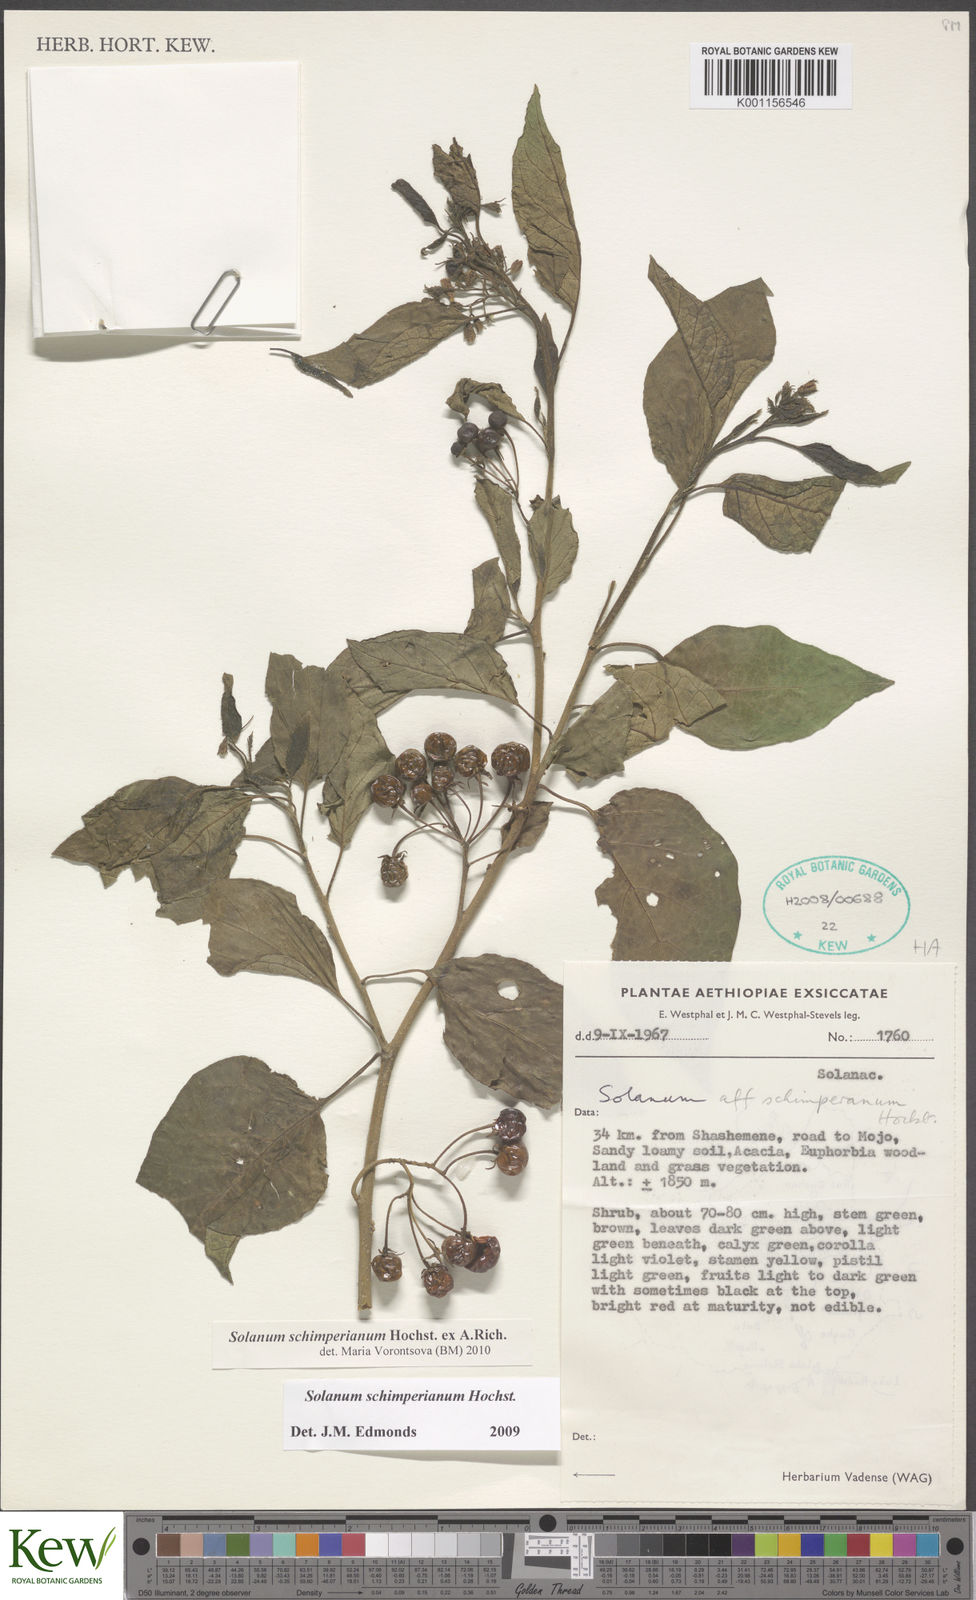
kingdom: Plantae
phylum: Tracheophyta
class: Magnoliopsida
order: Solanales
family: Solanaceae
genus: Solanum
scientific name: Solanum
